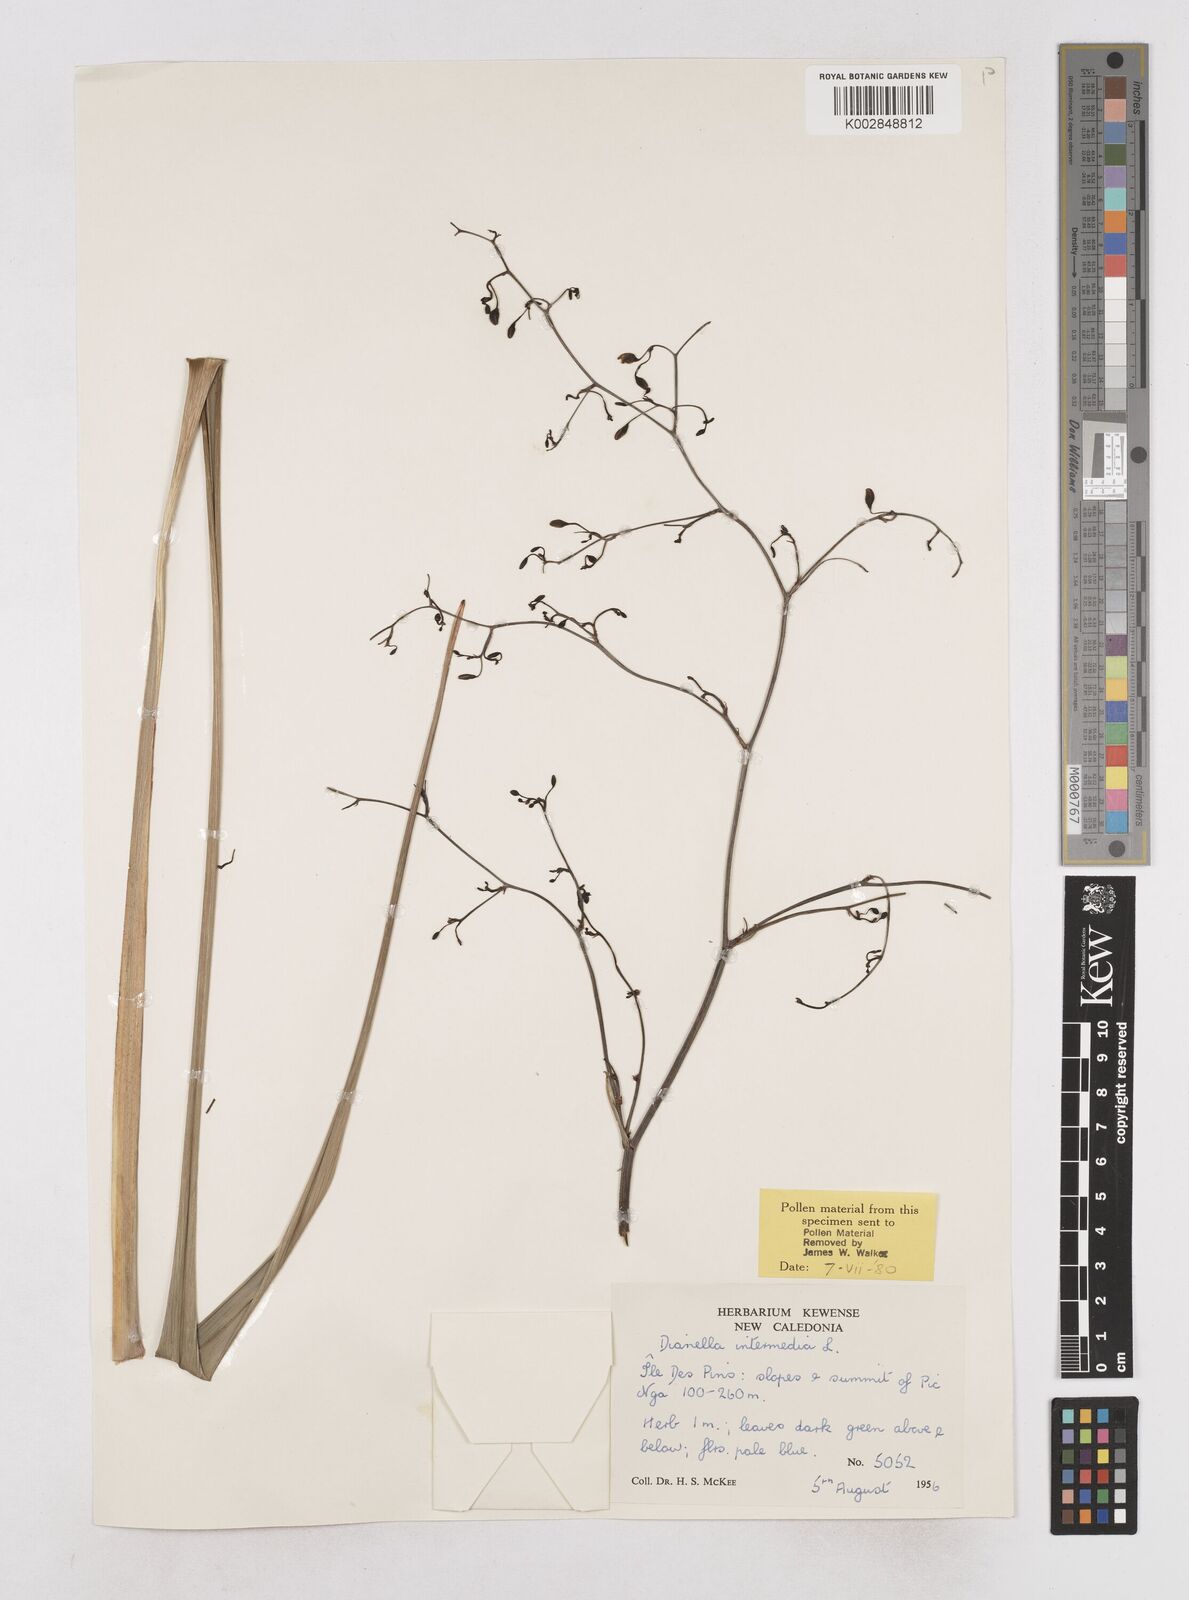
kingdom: Plantae
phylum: Tracheophyta
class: Liliopsida
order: Asparagales
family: Asphodelaceae
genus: Dianella
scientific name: Dianella intermedia
